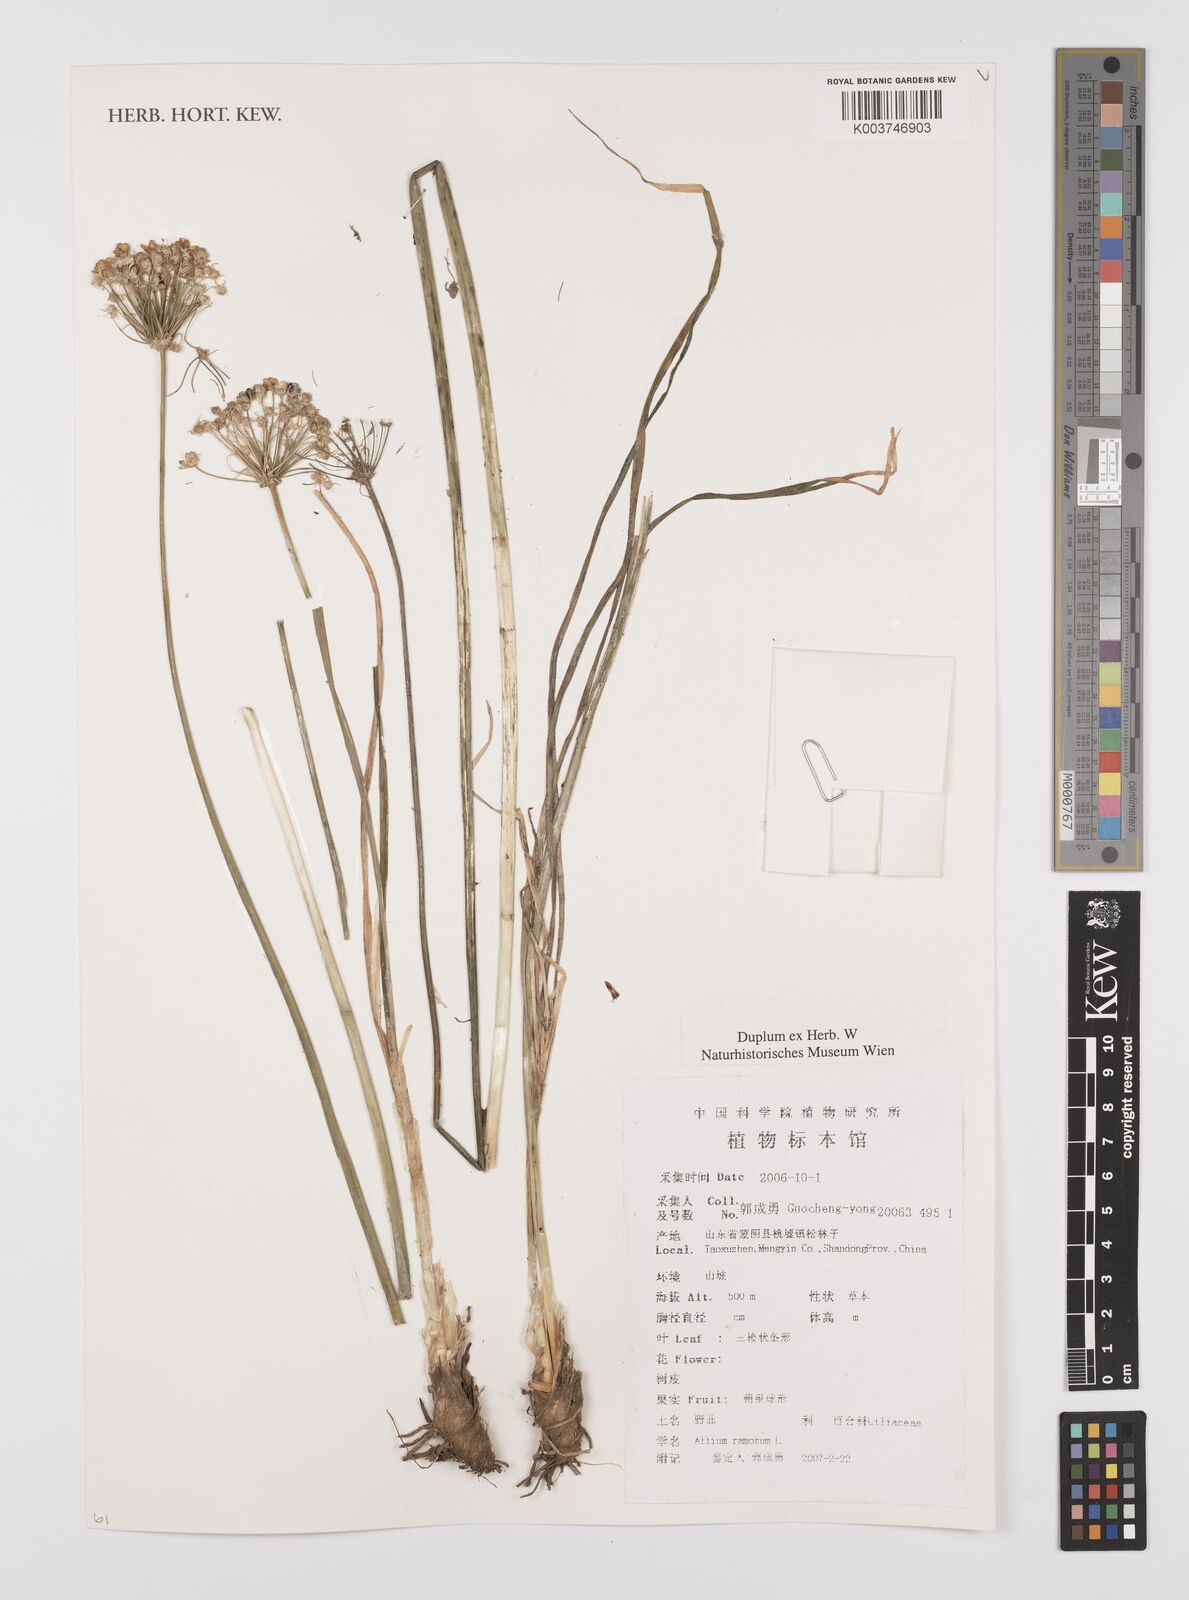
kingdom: Plantae
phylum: Tracheophyta
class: Liliopsida
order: Asparagales
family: Amaryllidaceae
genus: Allium
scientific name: Allium ramosum
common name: Fragrant garlic
